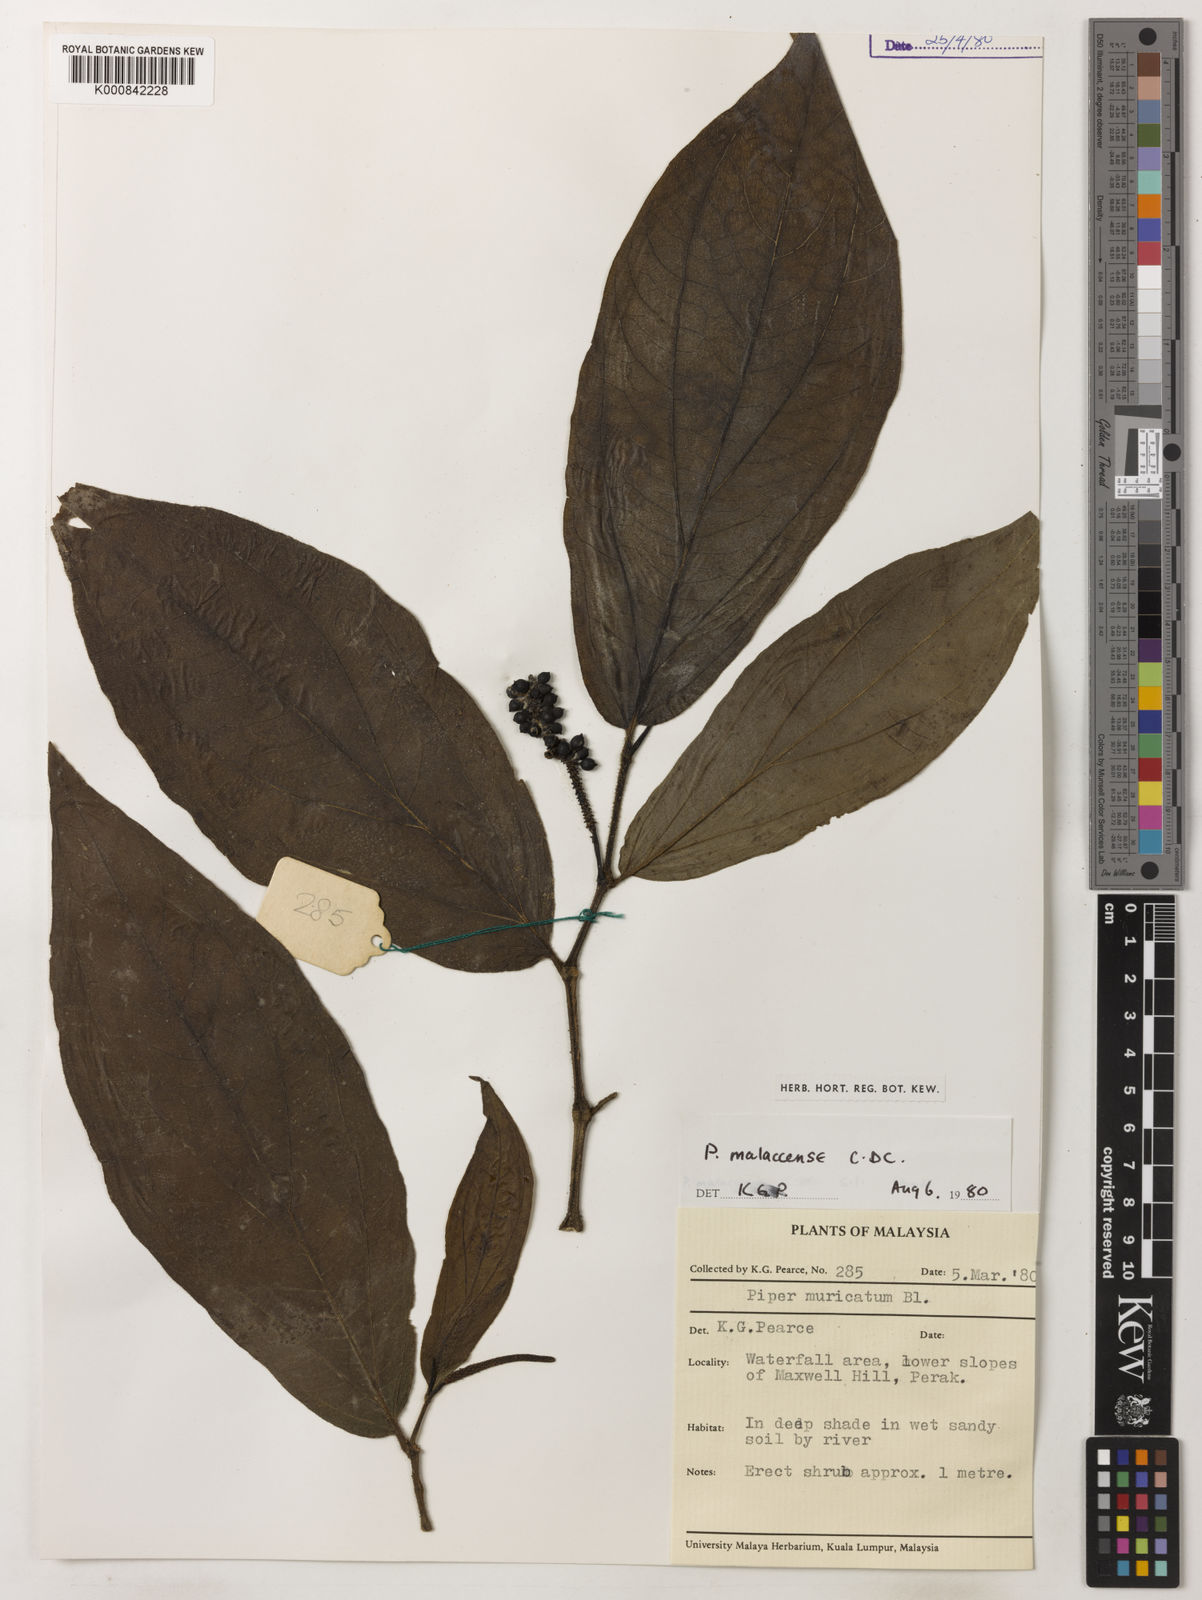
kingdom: Plantae
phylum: Tracheophyta
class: Magnoliopsida
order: Piperales
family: Piperaceae
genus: Piper
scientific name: Piper ridleyi
